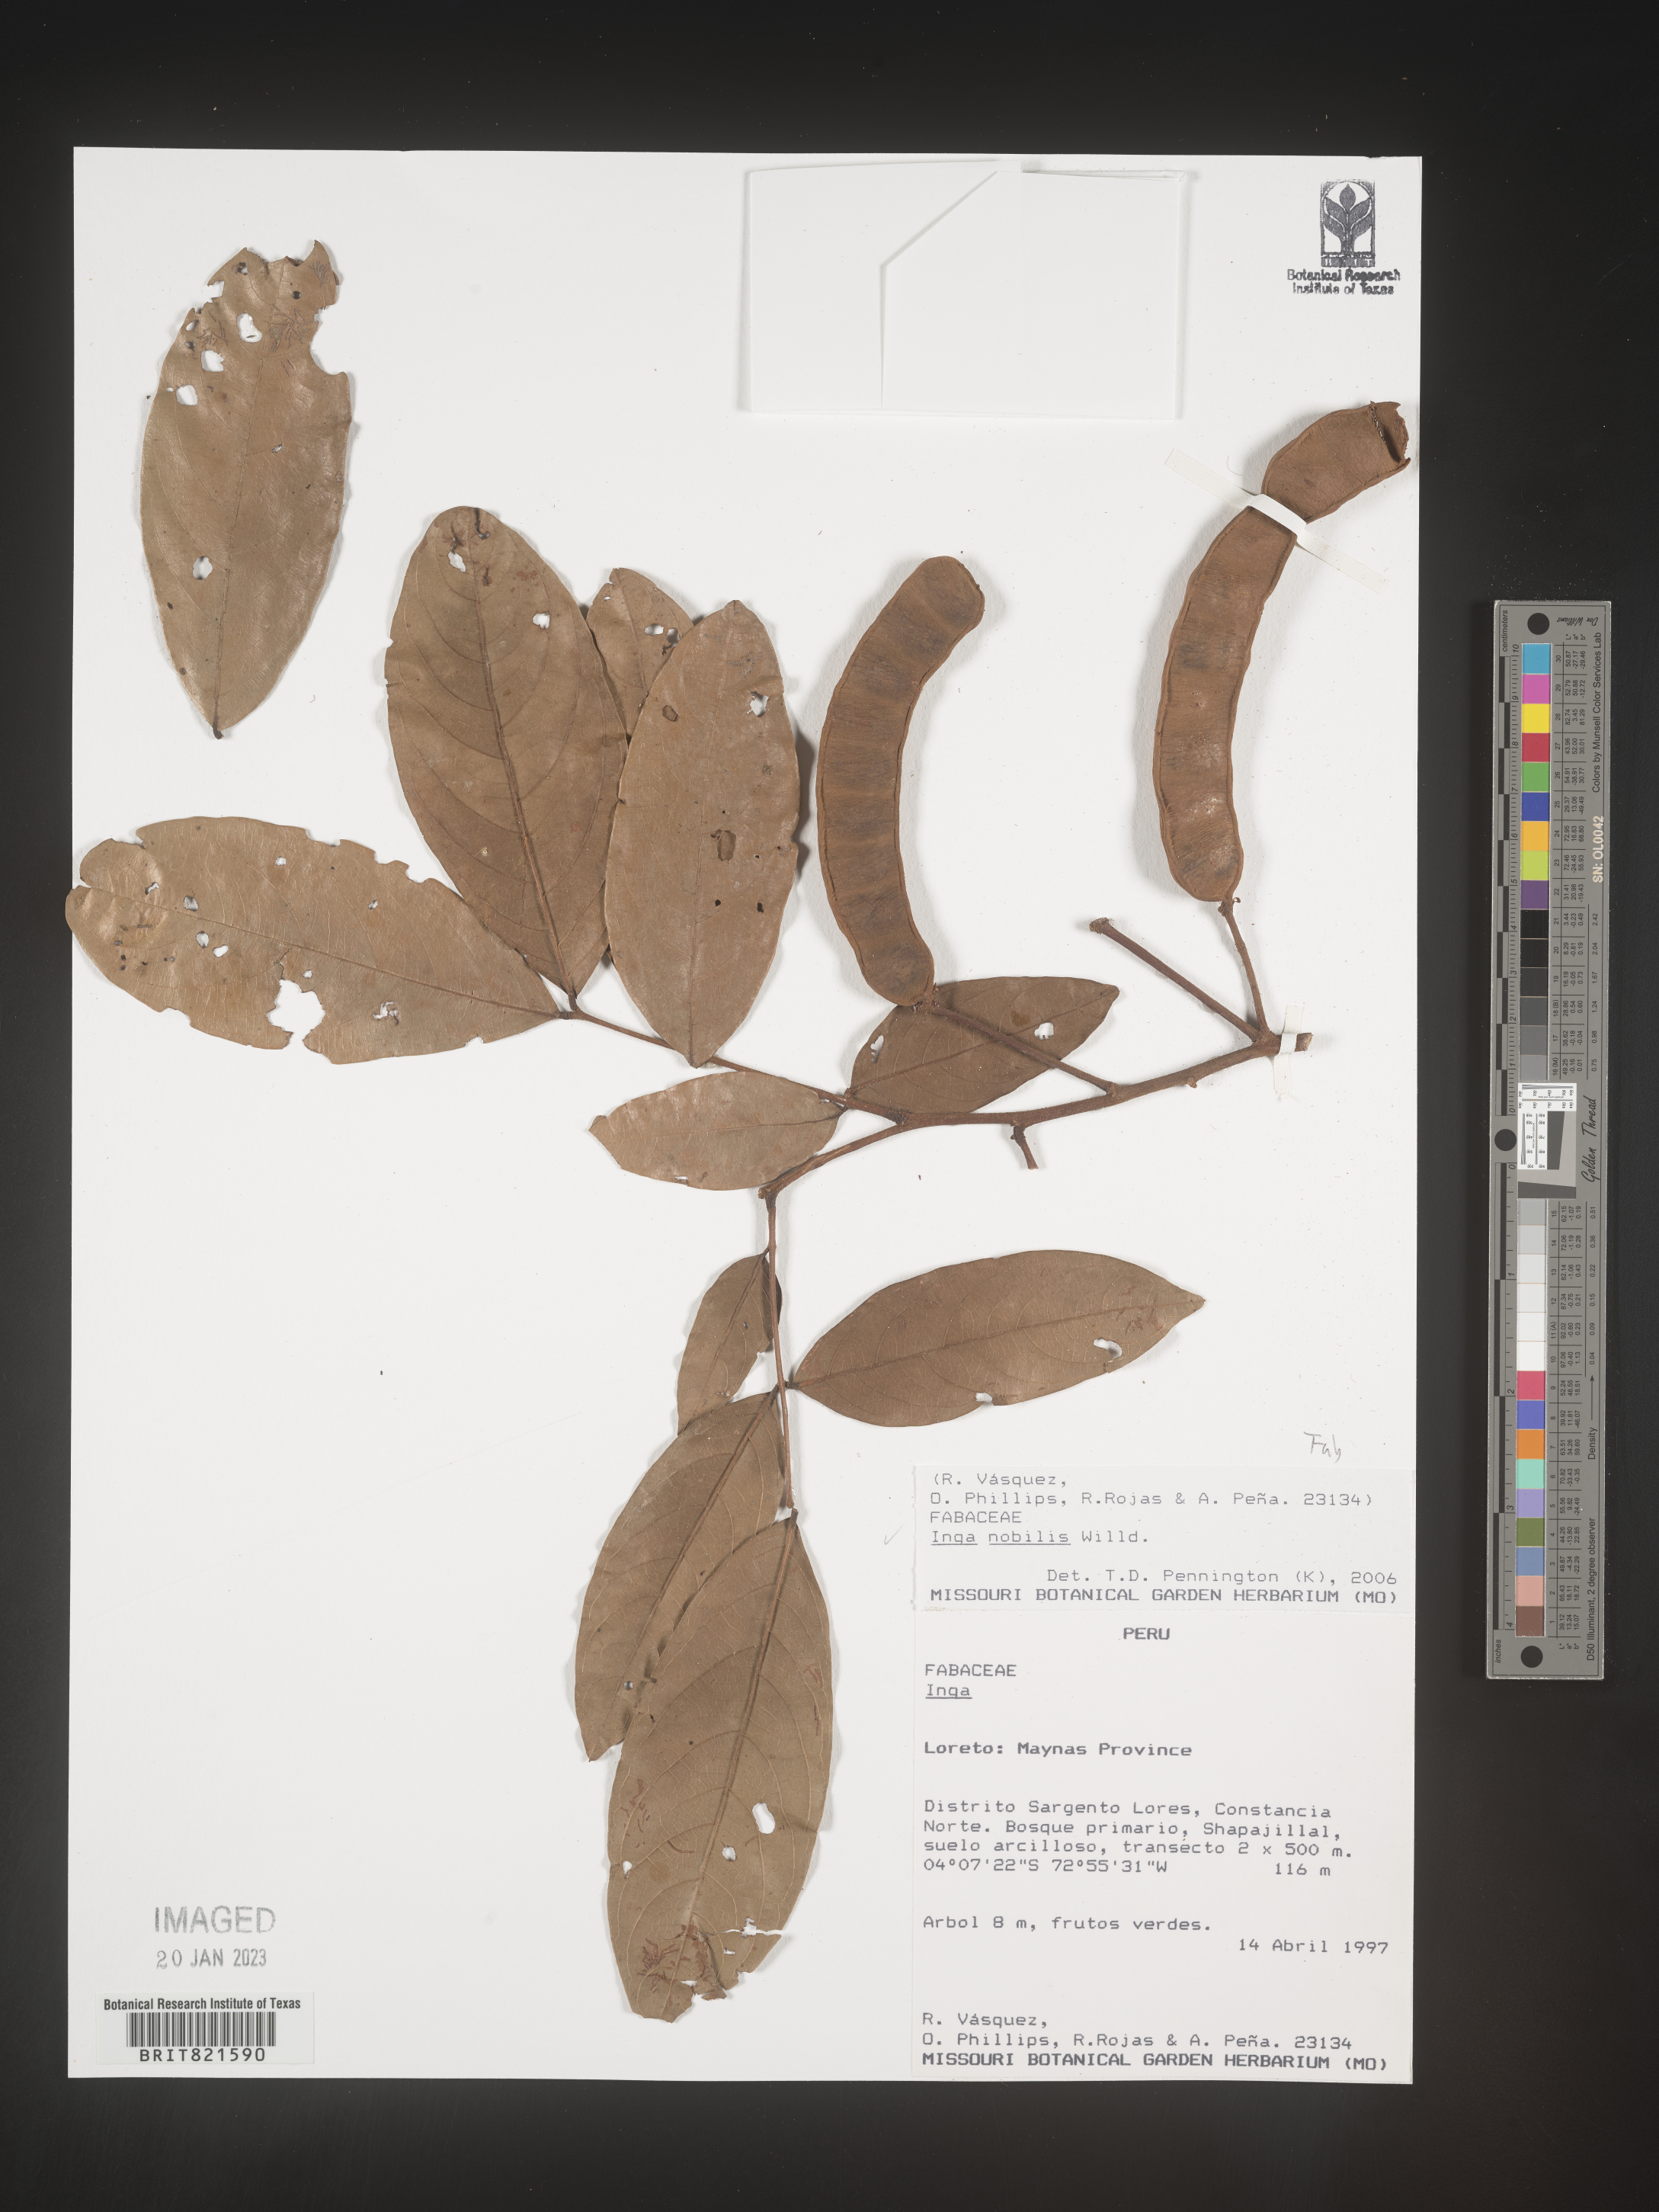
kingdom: Plantae
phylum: Tracheophyta
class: Magnoliopsida
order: Fabales
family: Fabaceae
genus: Inga
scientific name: Inga
